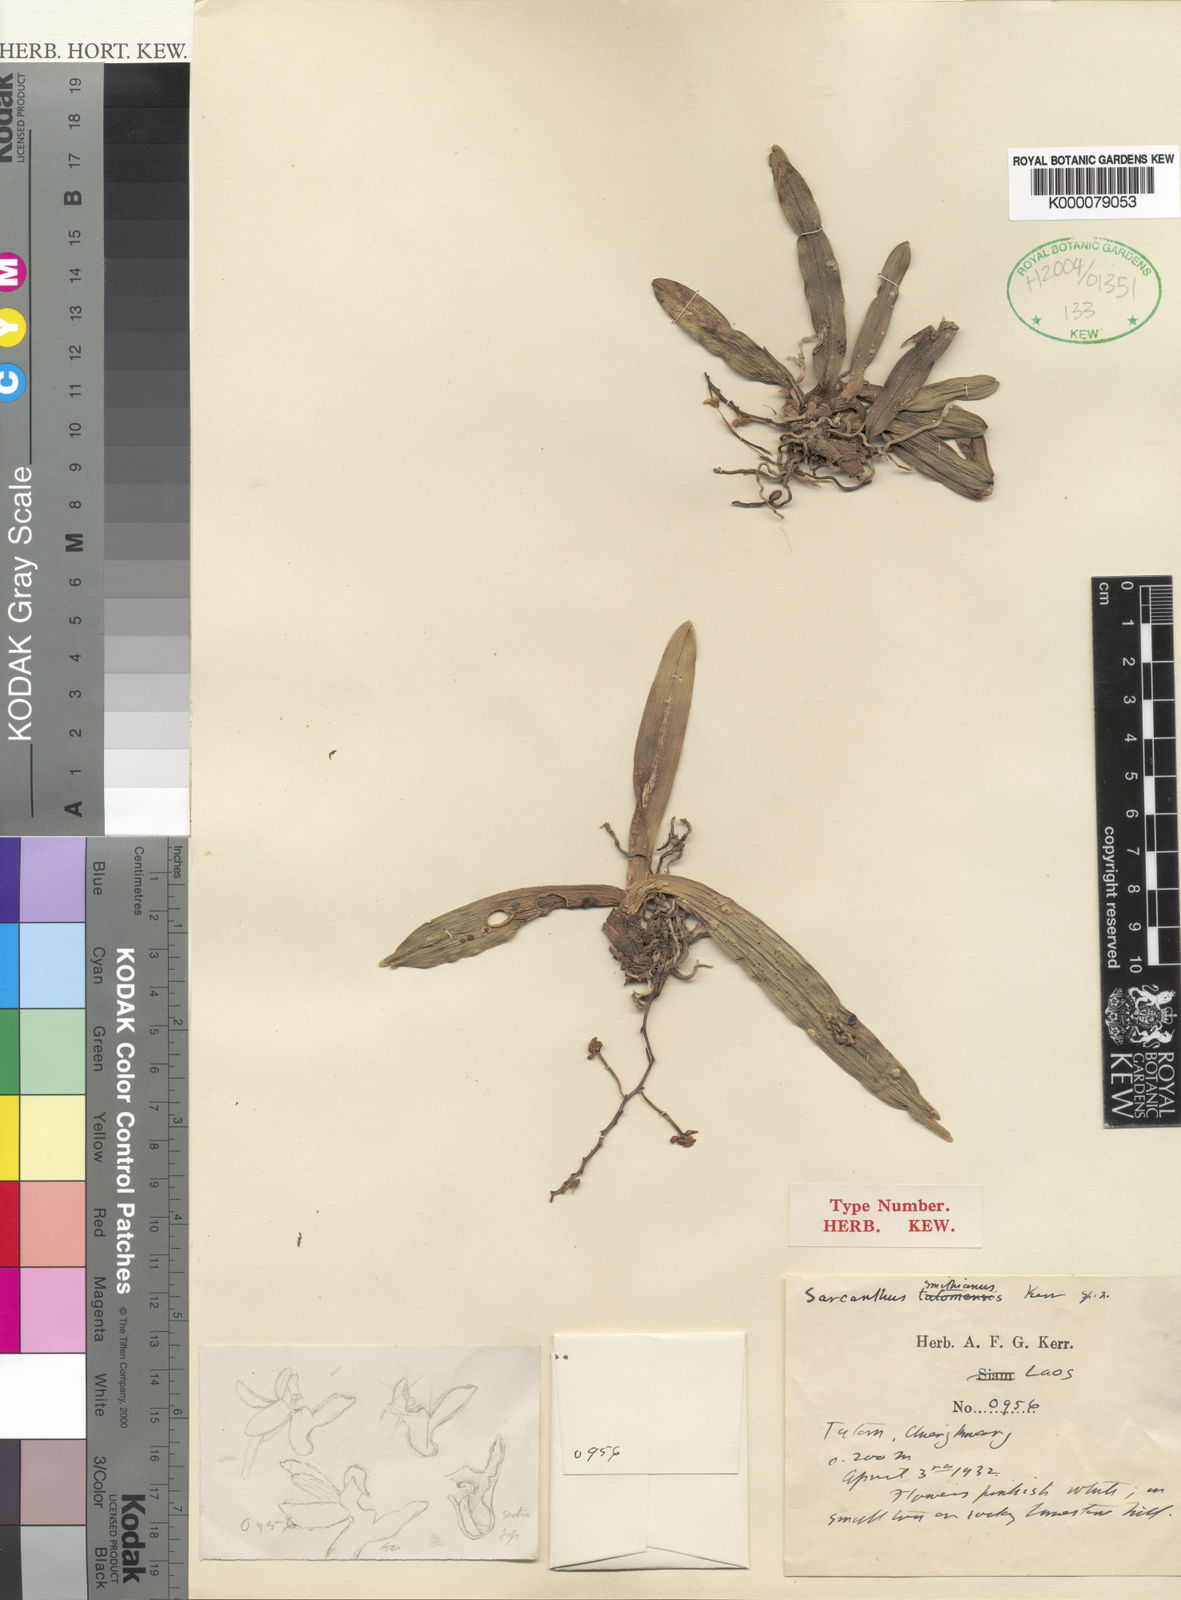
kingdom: Plantae
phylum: Tracheophyta
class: Liliopsida
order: Asparagales
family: Orchidaceae
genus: Sarcoglyphis
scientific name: Sarcoglyphis mirabilis
